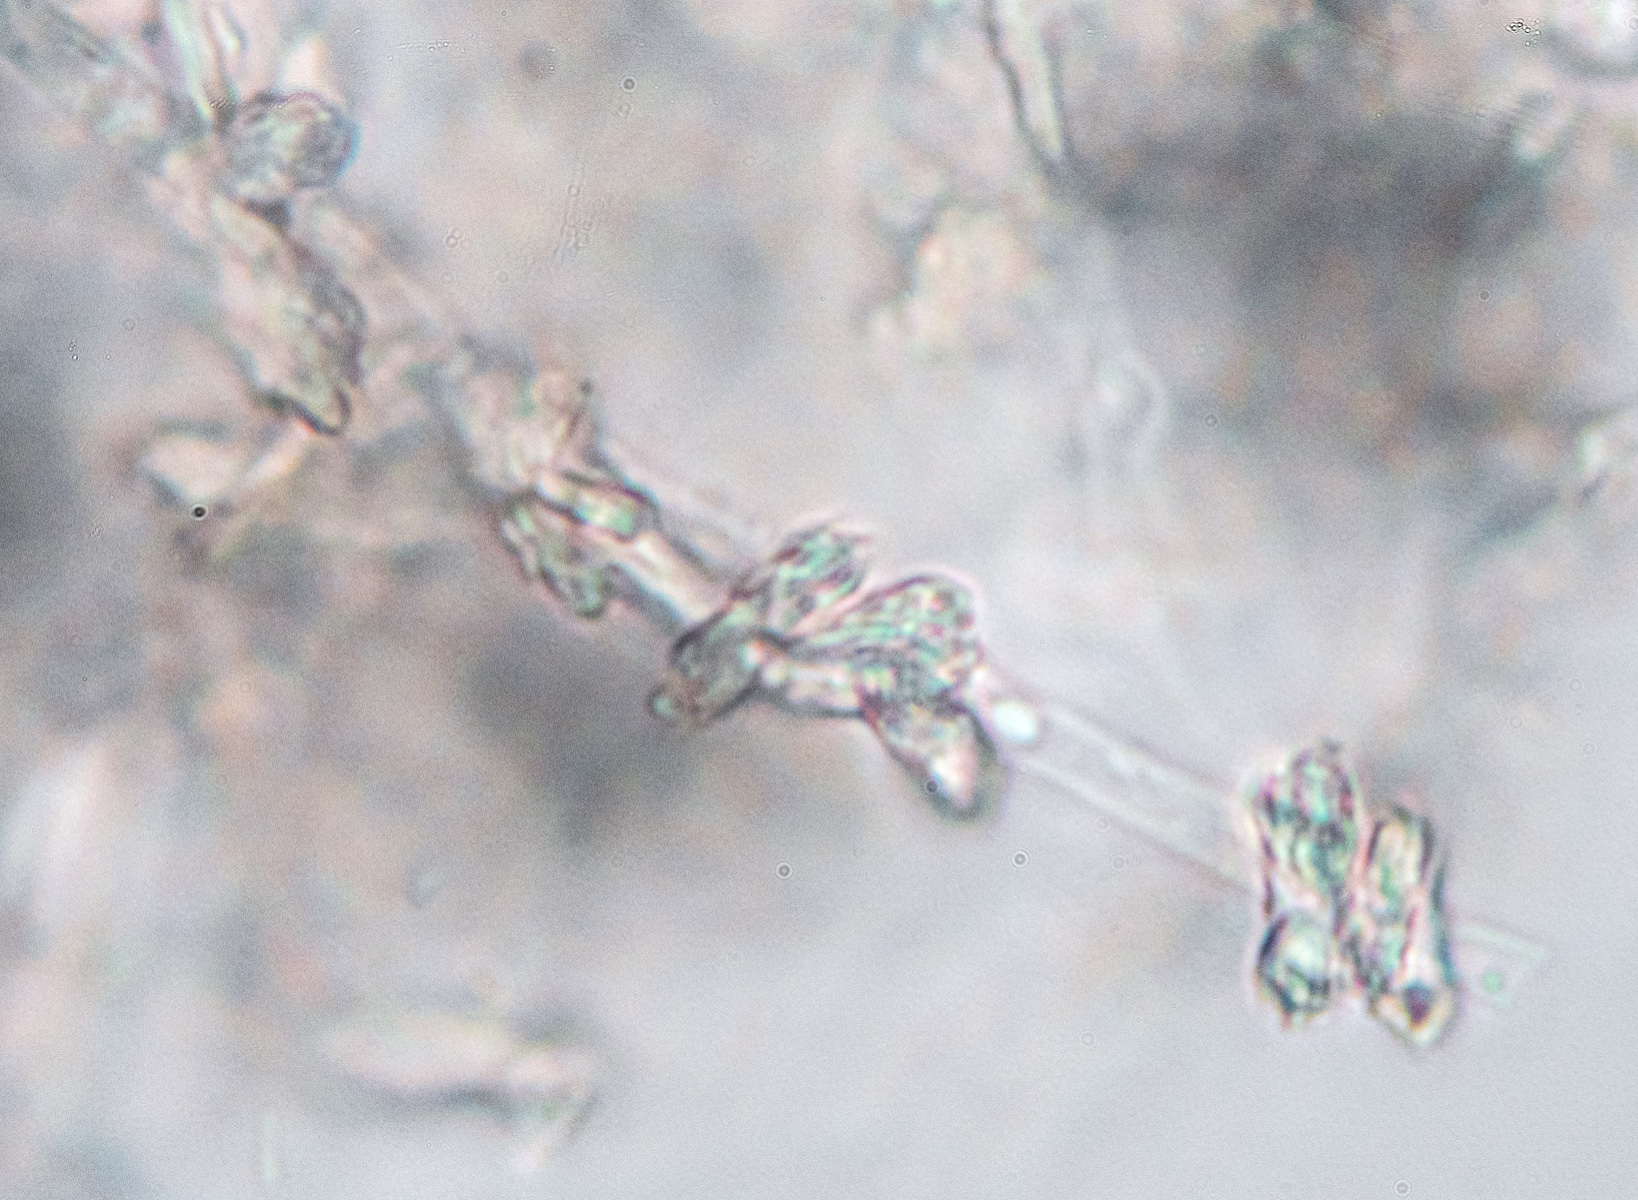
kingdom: Fungi
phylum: Basidiomycota
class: Agaricomycetes
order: Trechisporales
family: Sistotremataceae
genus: Trechispora
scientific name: Trechispora
